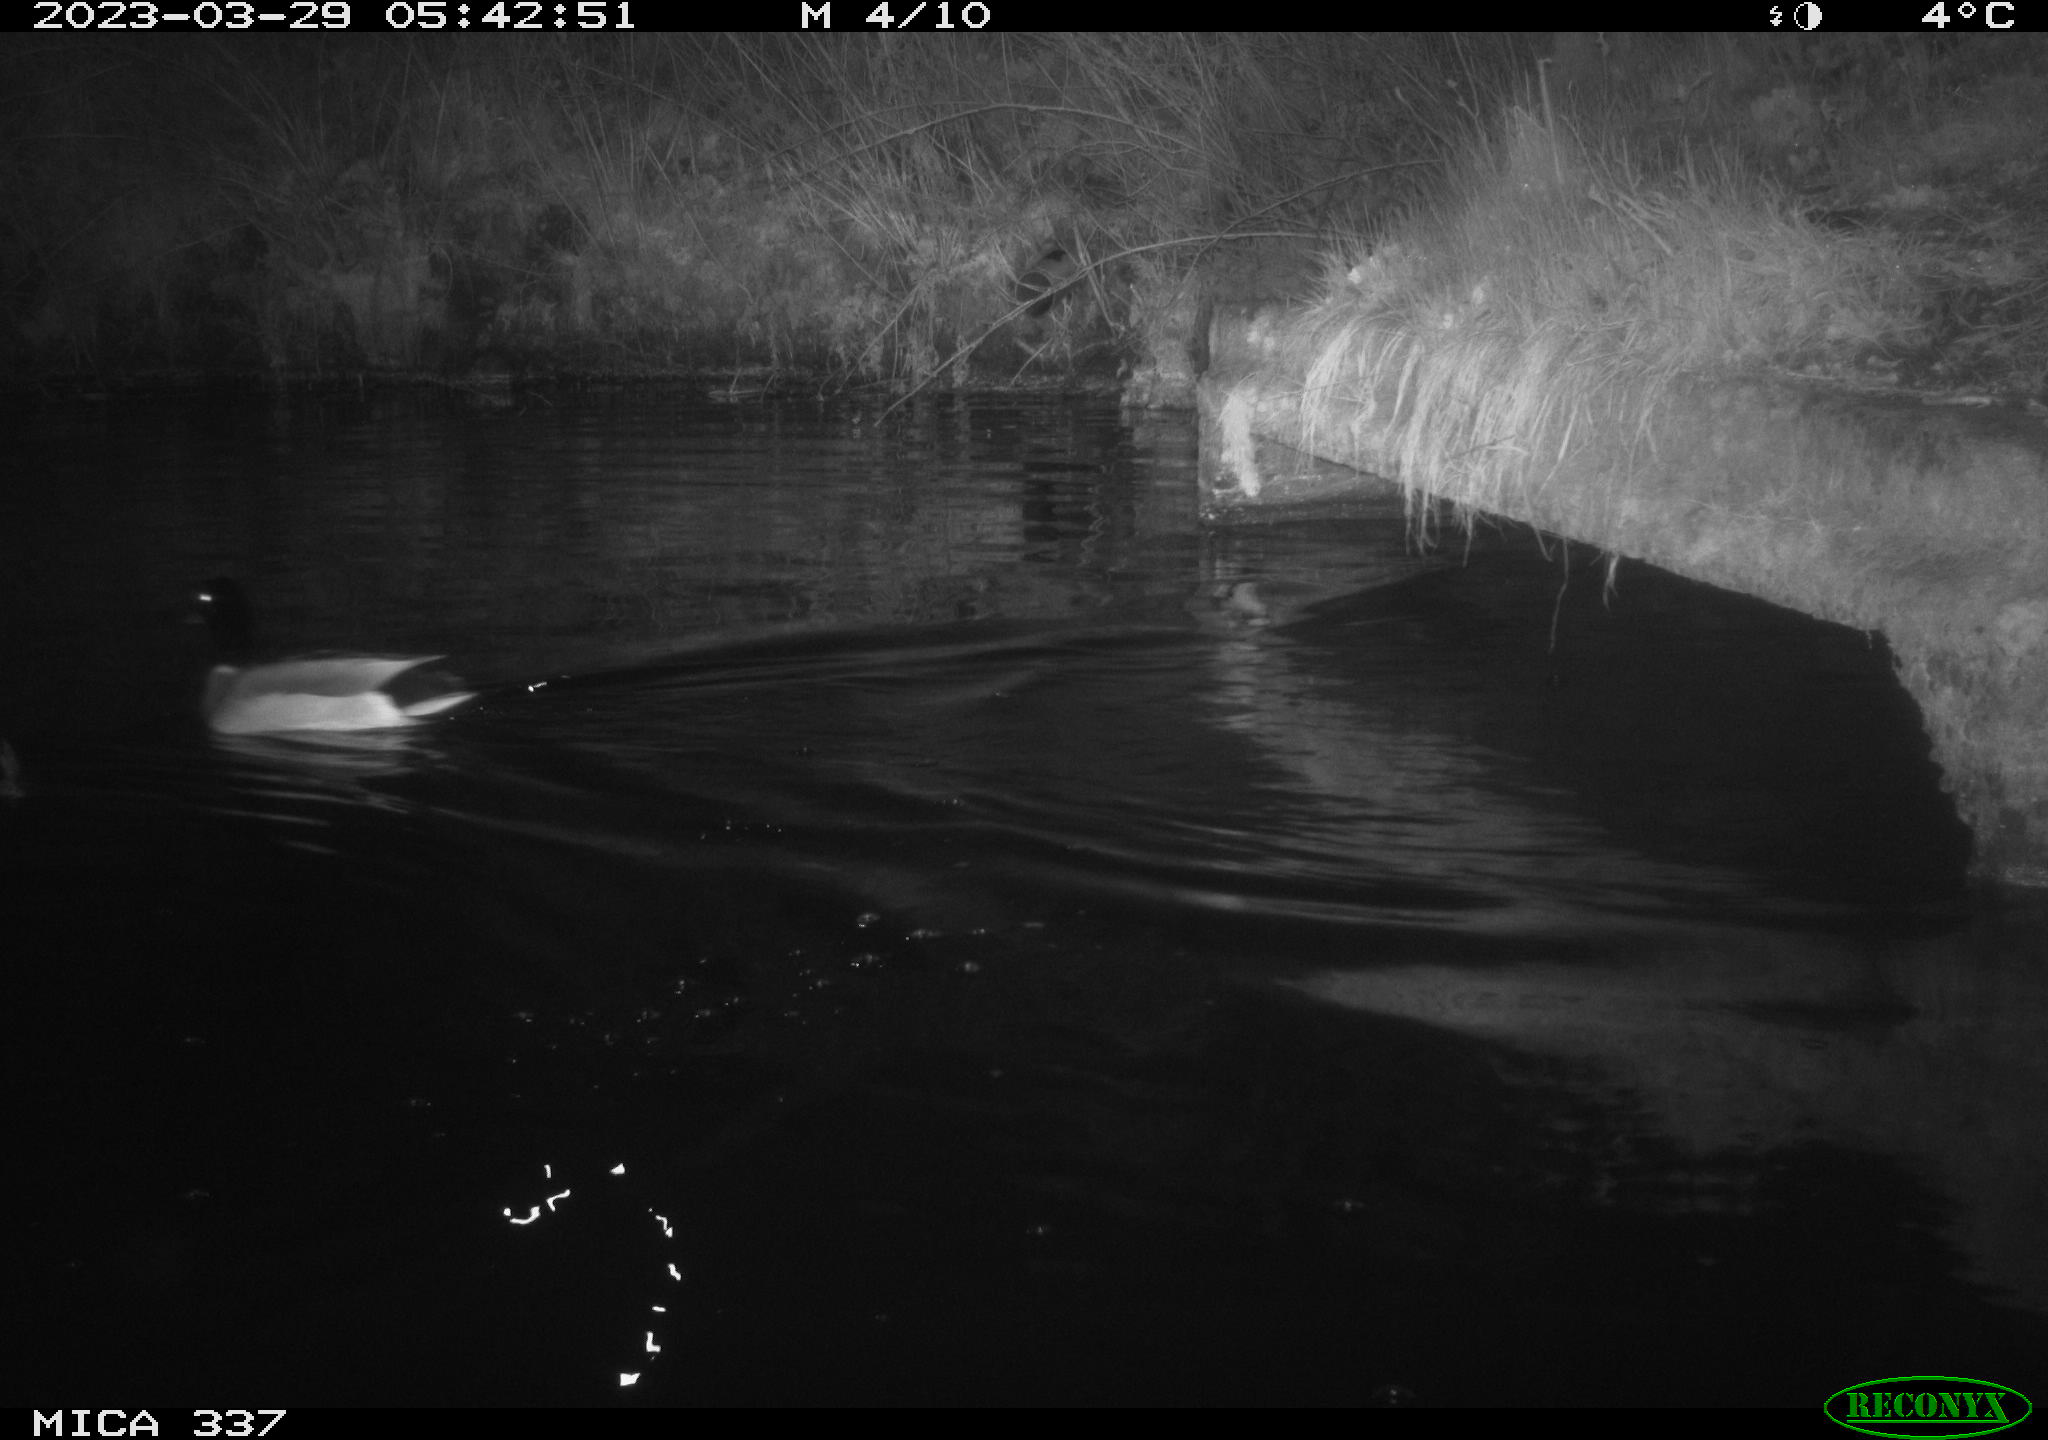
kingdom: Animalia
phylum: Chordata
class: Aves
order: Anseriformes
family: Anatidae
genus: Anas
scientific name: Anas platyrhynchos
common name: Mallard
